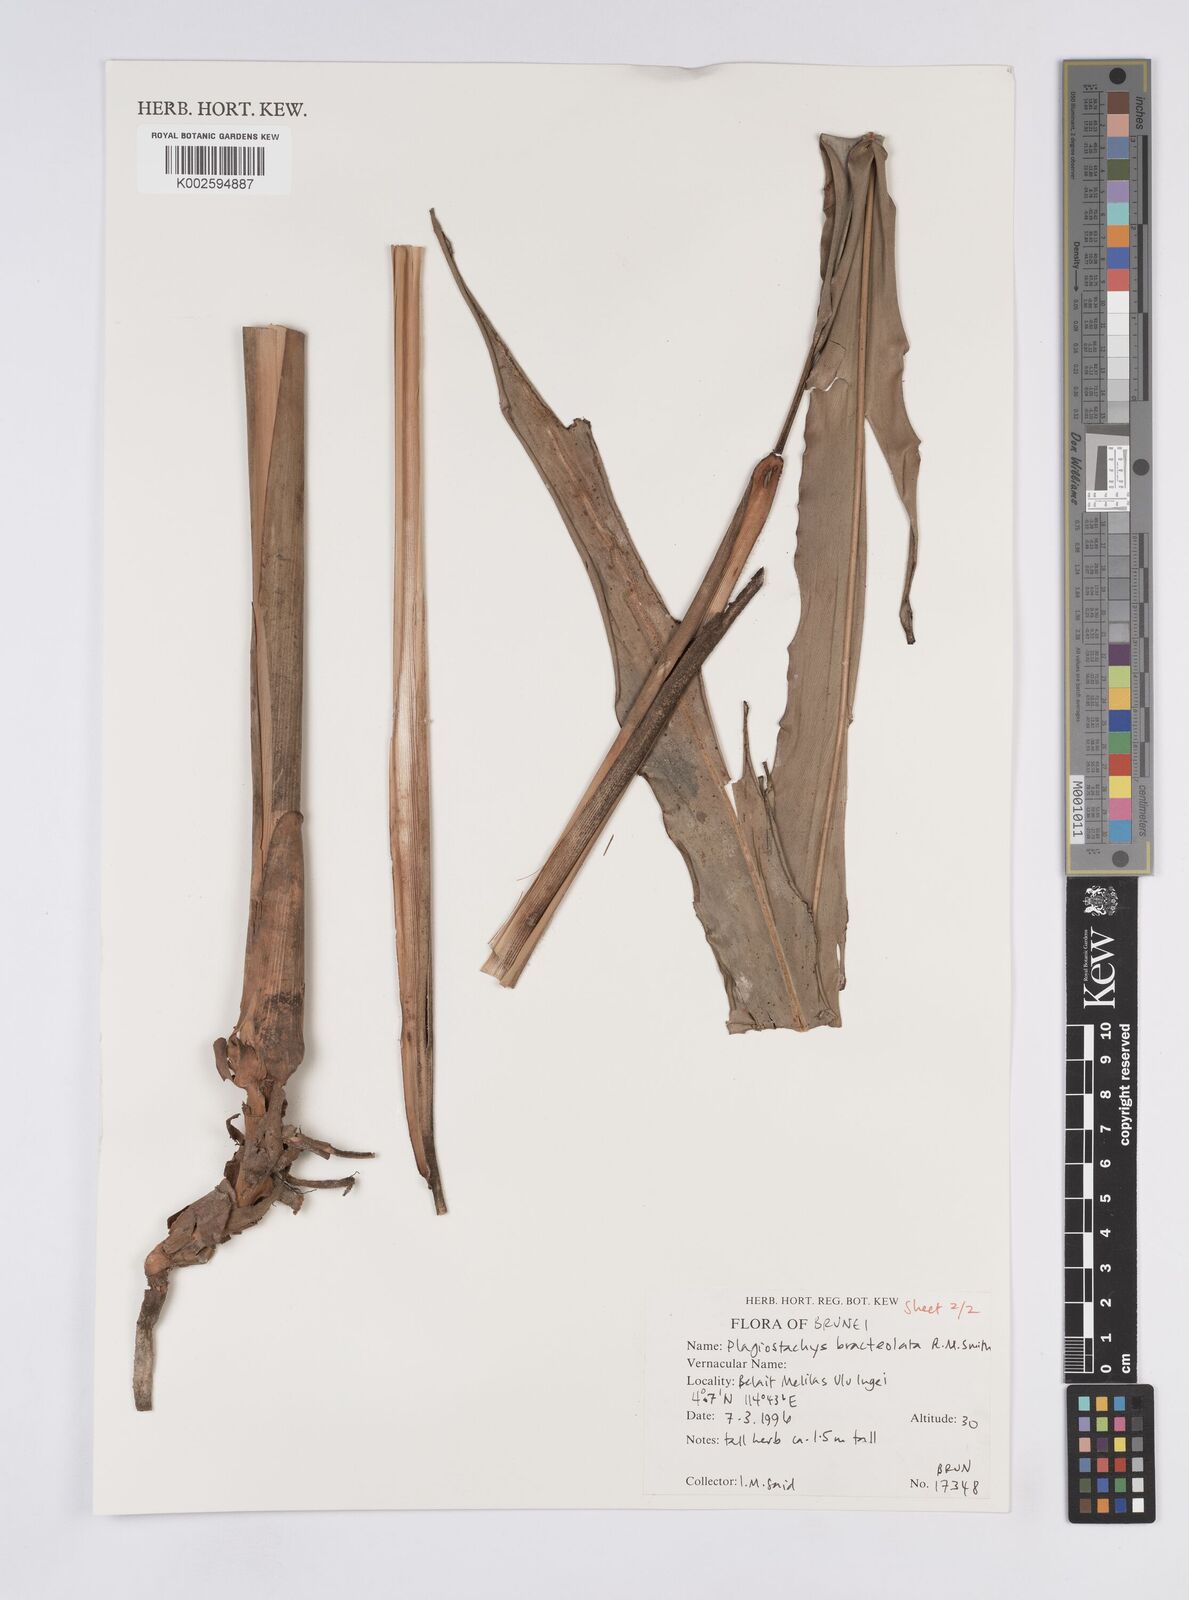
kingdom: Plantae
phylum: Tracheophyta
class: Liliopsida
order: Zingiberales
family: Zingiberaceae
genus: Plagiostachys
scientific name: Plagiostachys bracteolata
